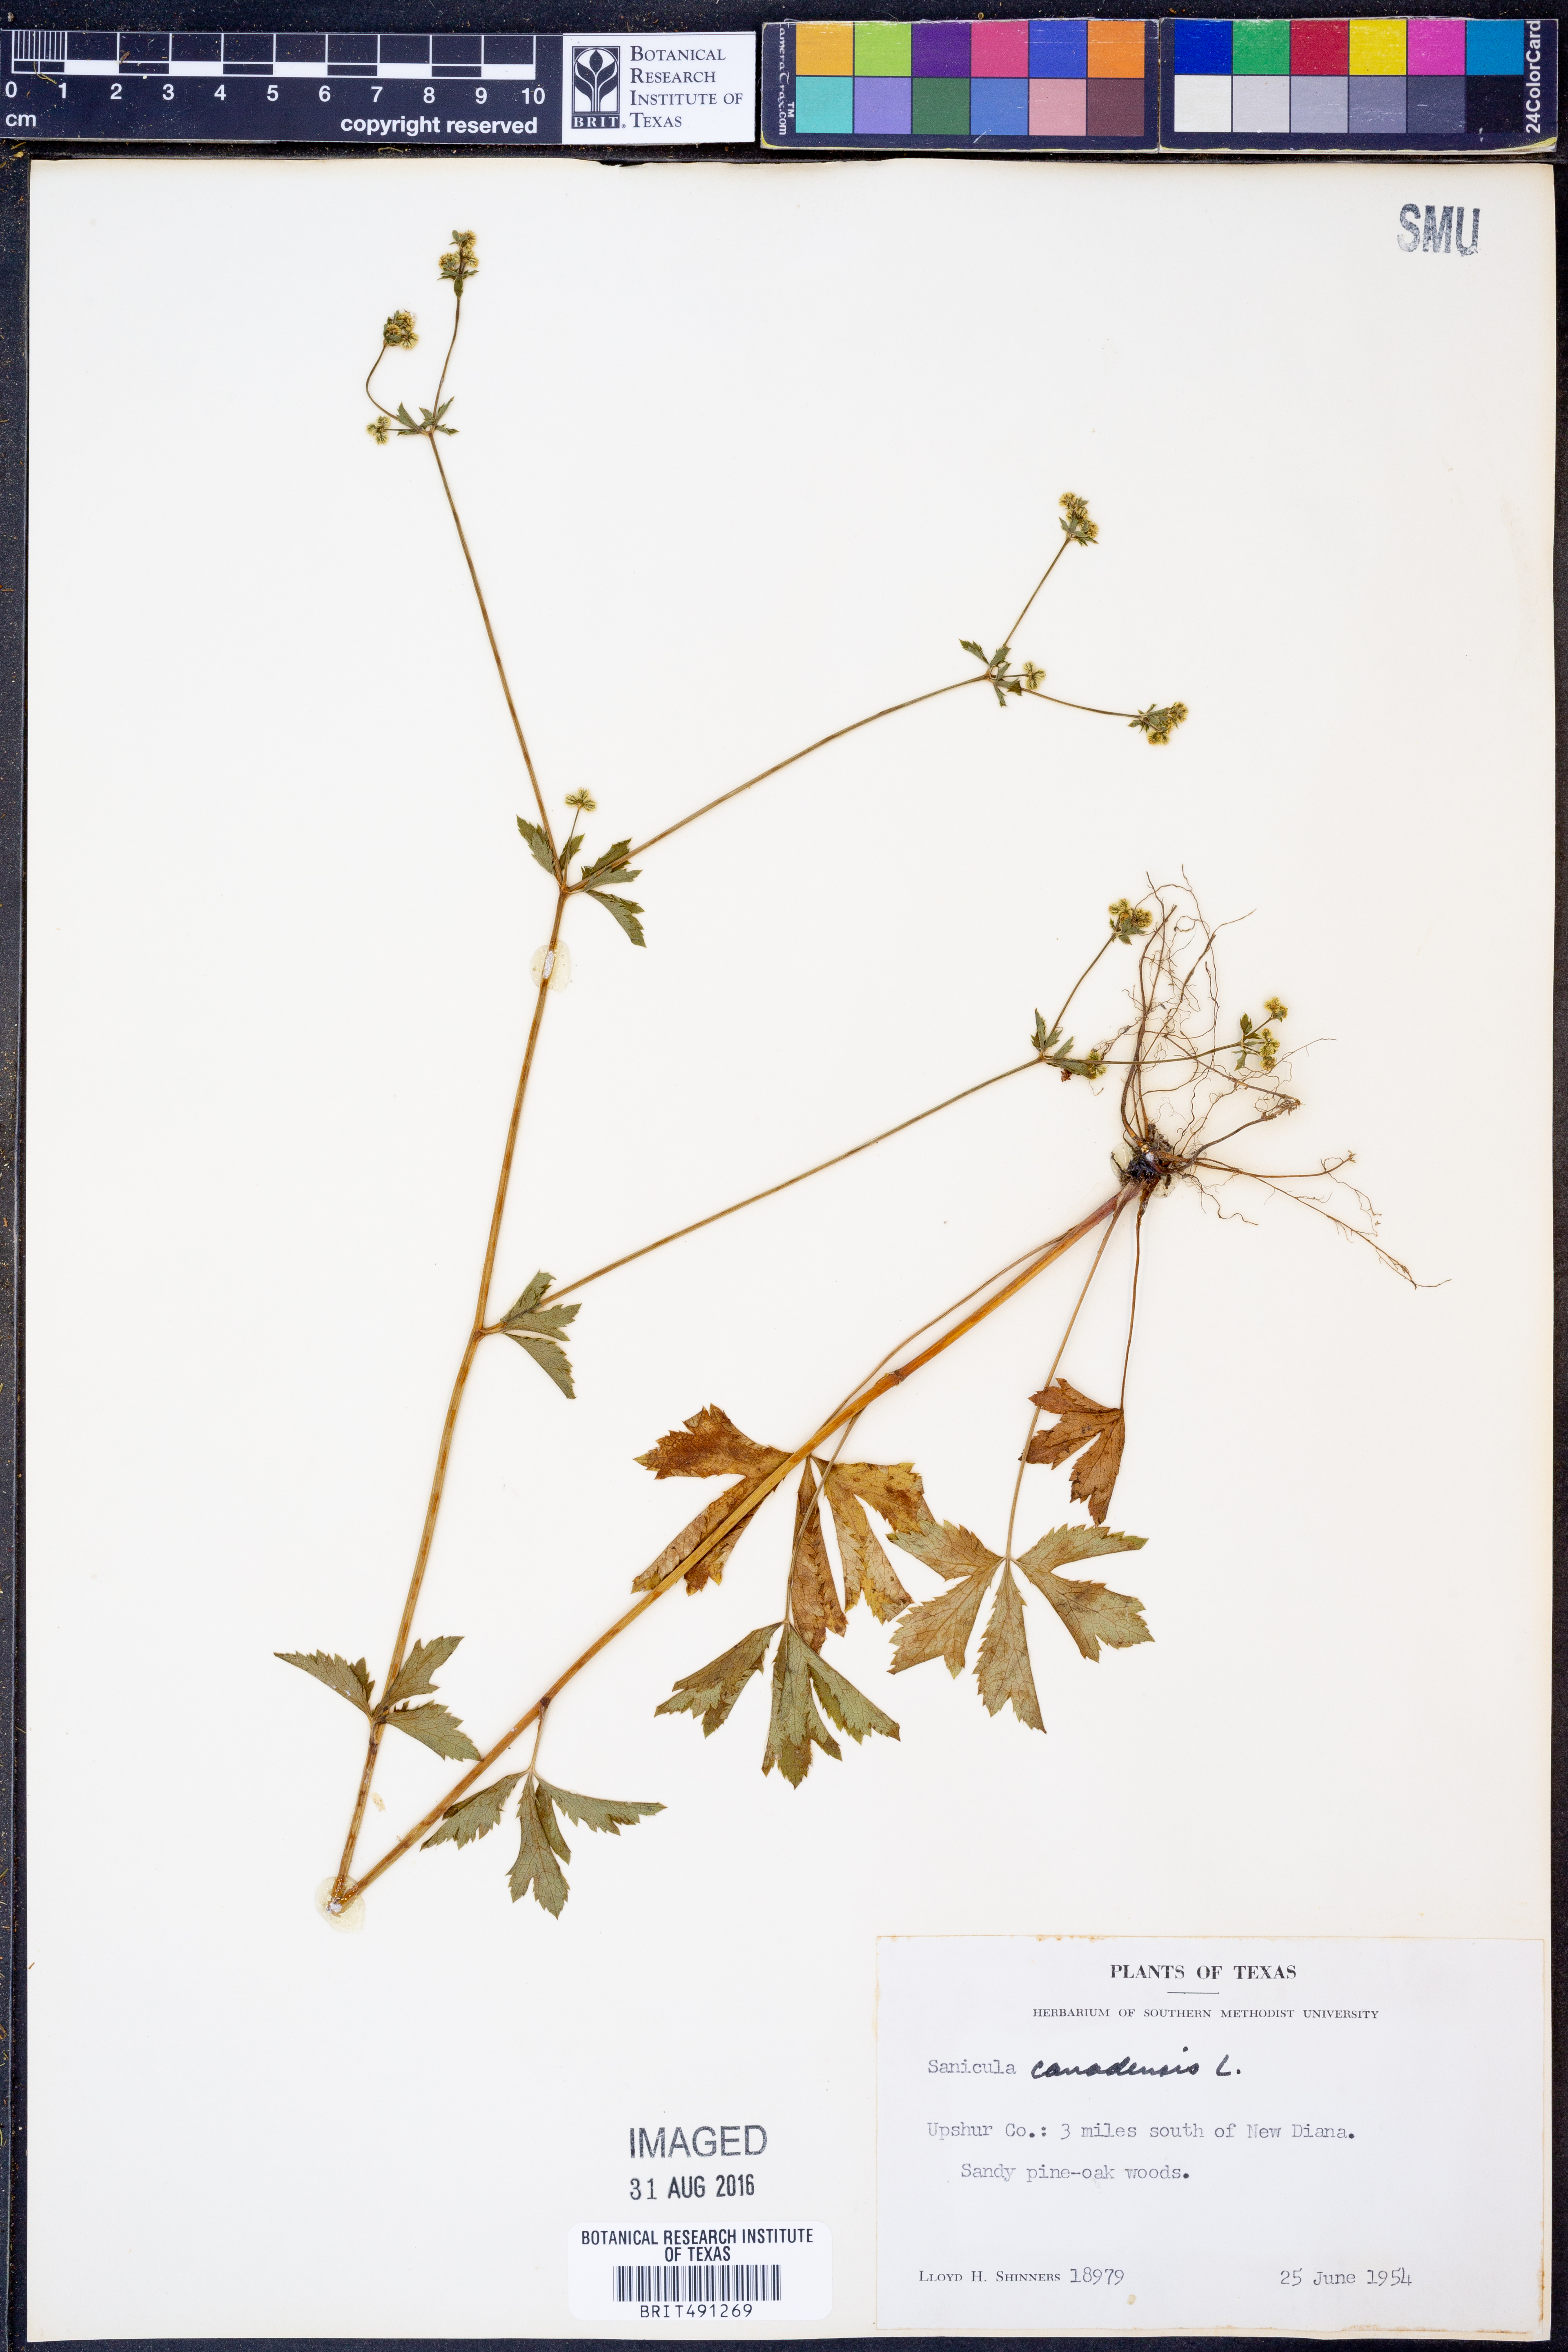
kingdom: Plantae
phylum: Tracheophyta
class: Magnoliopsida
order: Apiales
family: Apiaceae
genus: Sanicula
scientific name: Sanicula canadensis
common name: Canada sanicle
